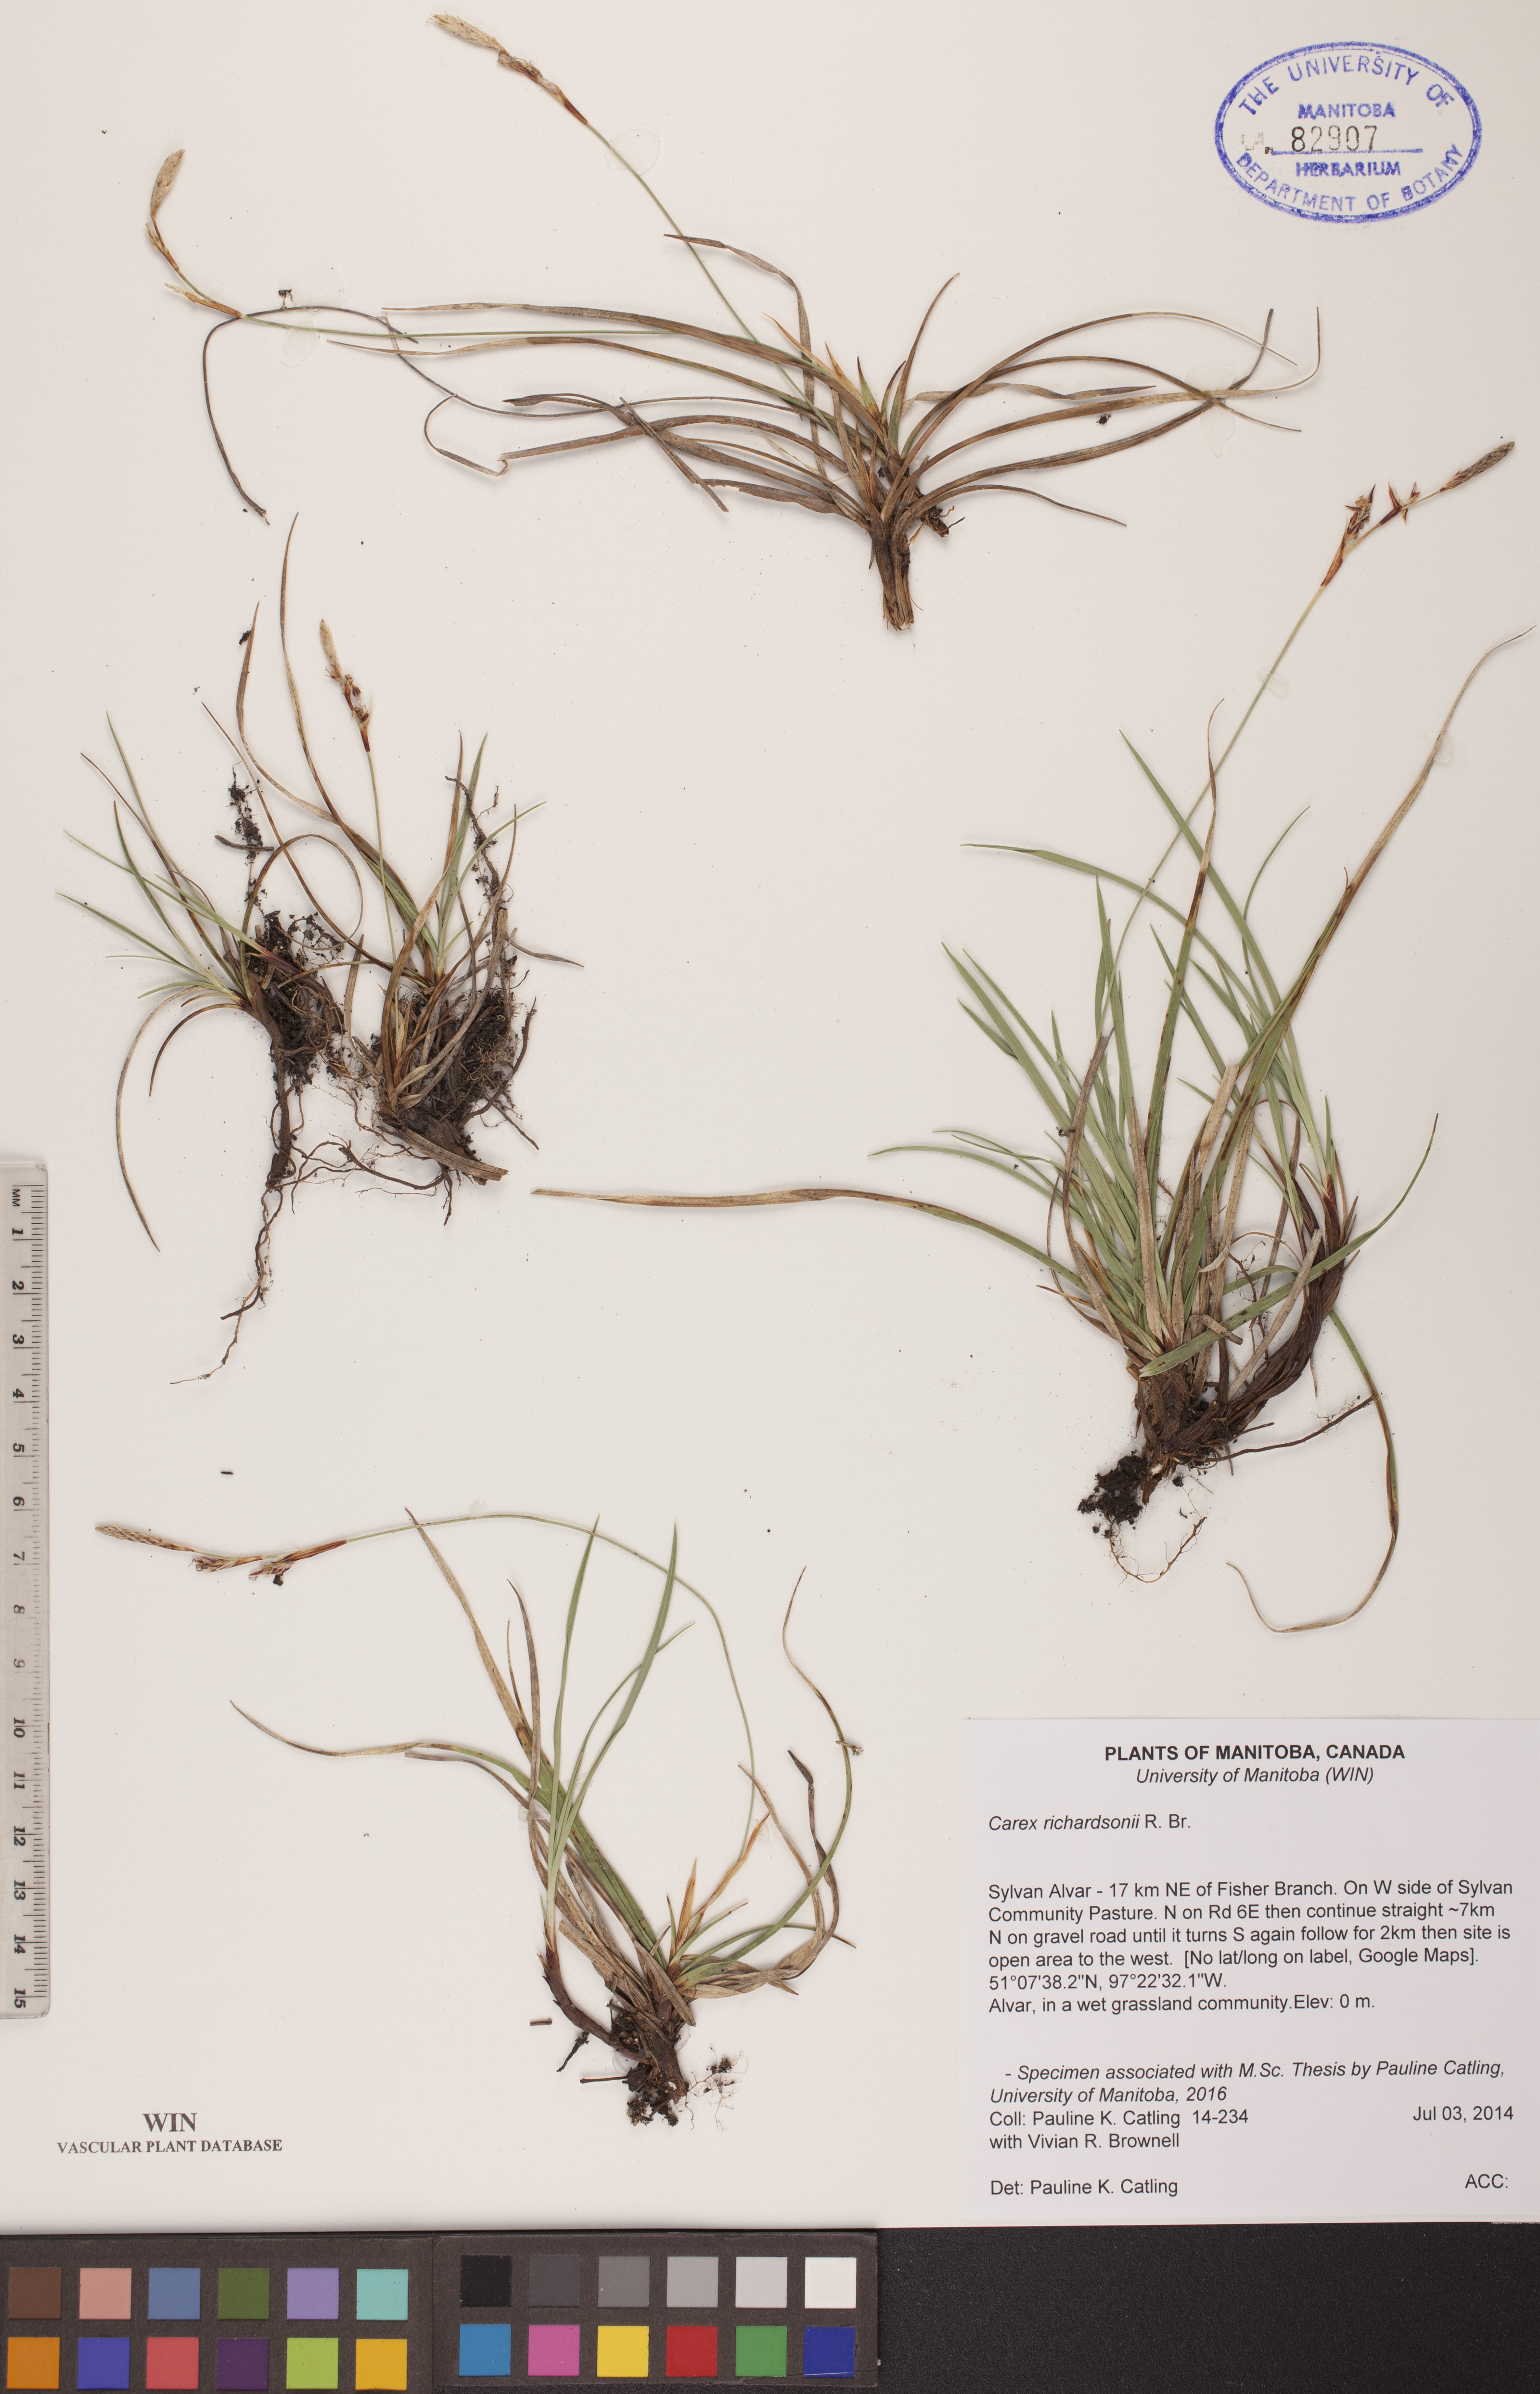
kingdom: Plantae
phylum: Tracheophyta
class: Liliopsida
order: Poales
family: Cyperaceae
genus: Carex
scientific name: Carex richardsonii
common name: Prairie hummock sedge
